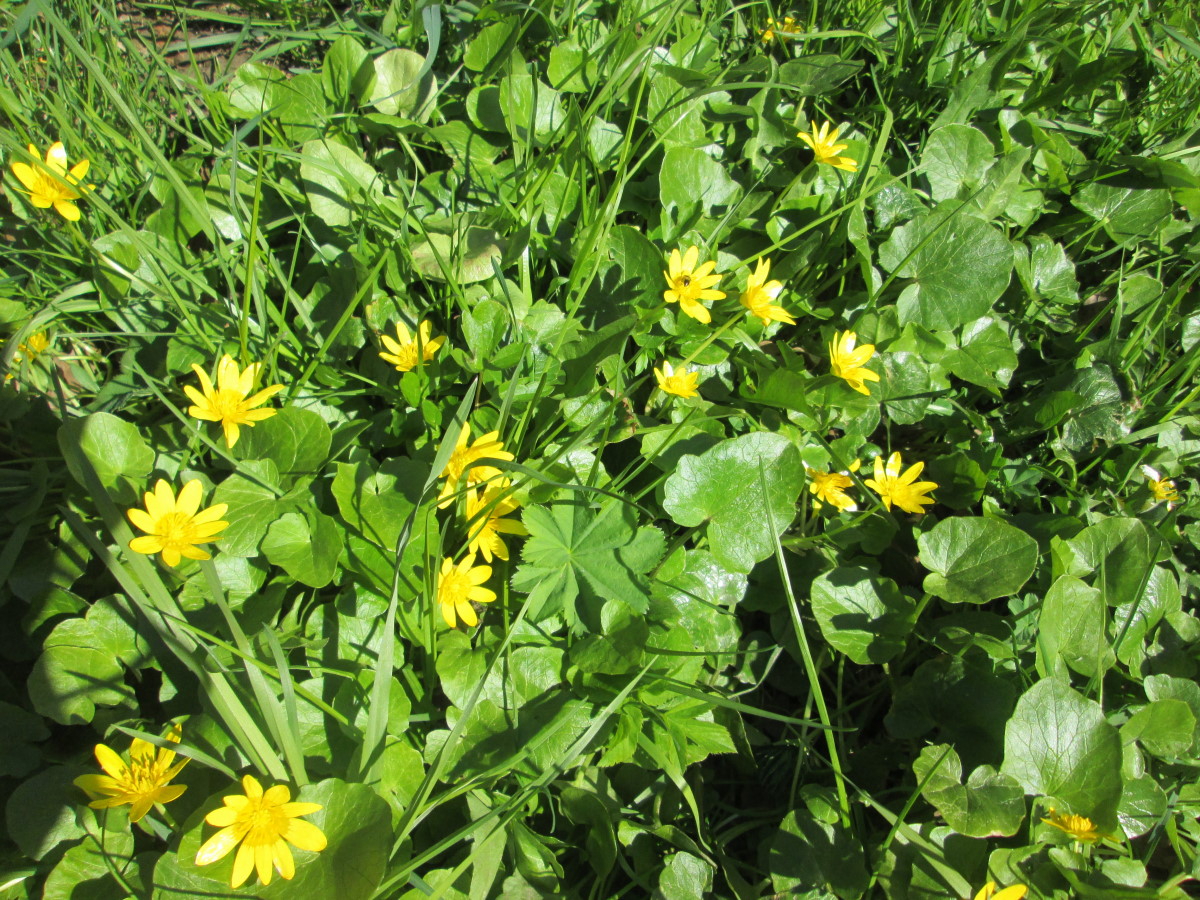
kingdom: Plantae
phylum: Tracheophyta
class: Magnoliopsida
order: Ranunculales
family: Ranunculaceae
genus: Ficaria
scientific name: Ficaria verna
